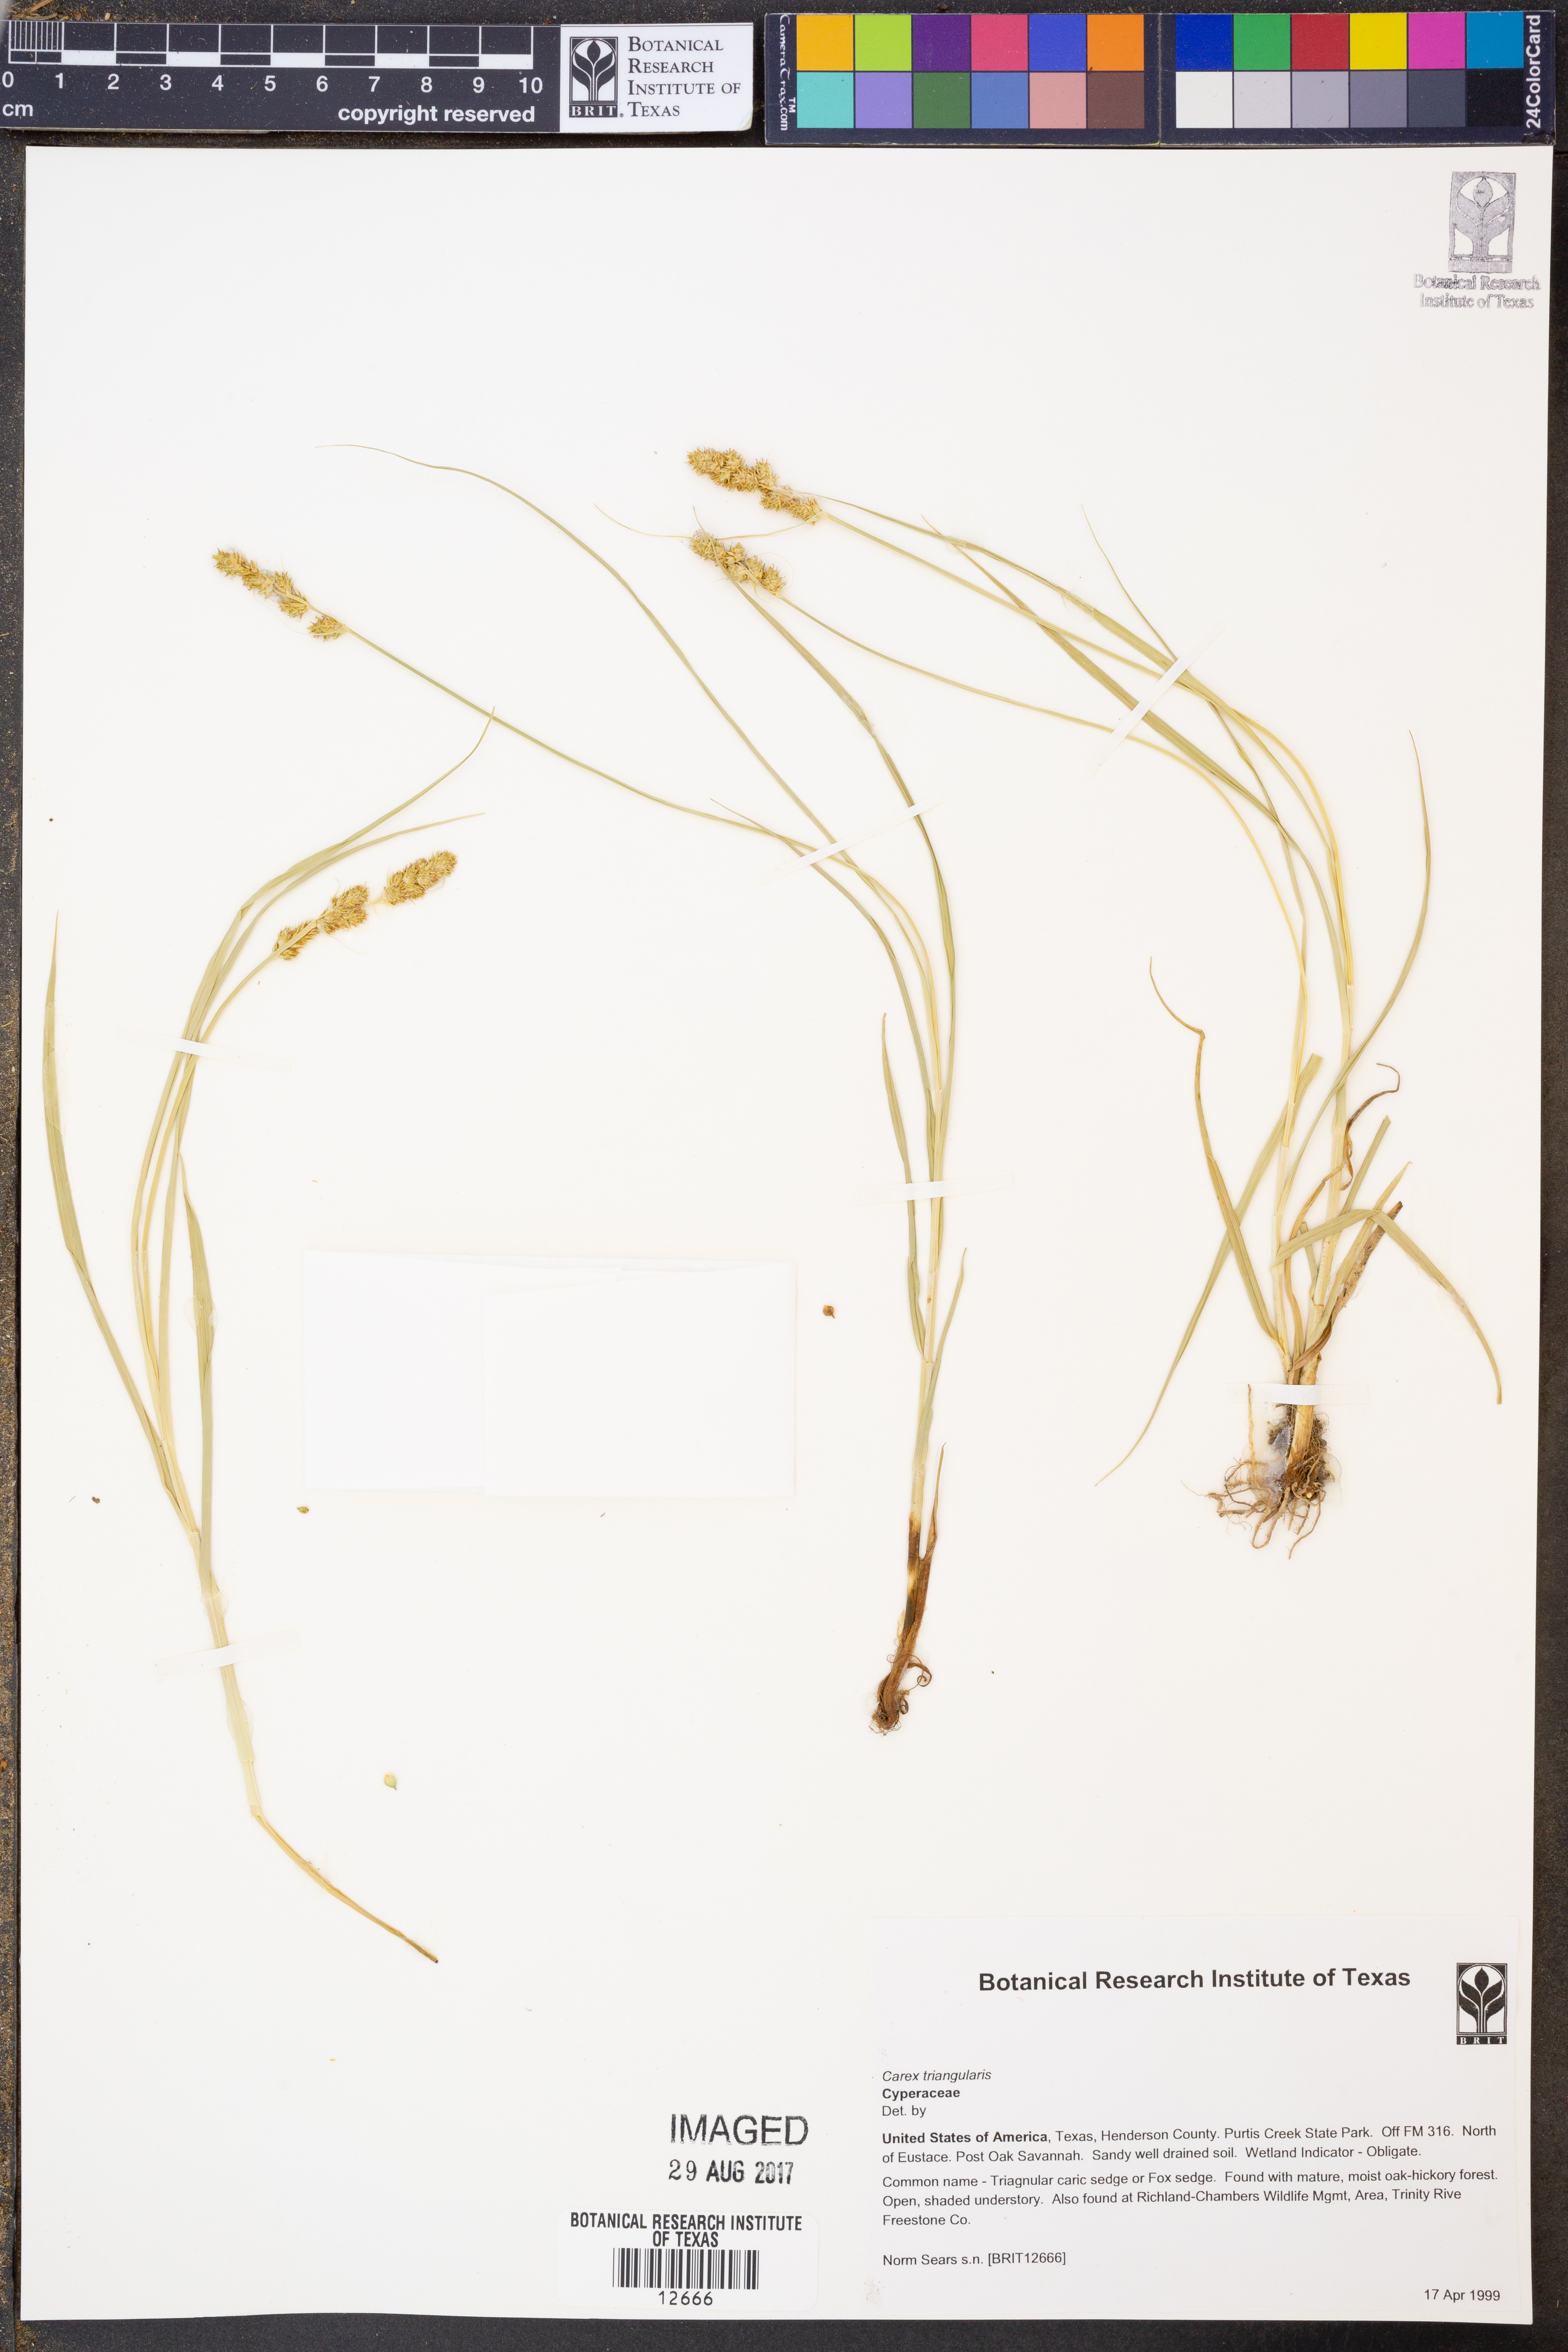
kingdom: Plantae
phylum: Tracheophyta
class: Liliopsida
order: Poales
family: Cyperaceae
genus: Carex
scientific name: Carex triangularis
